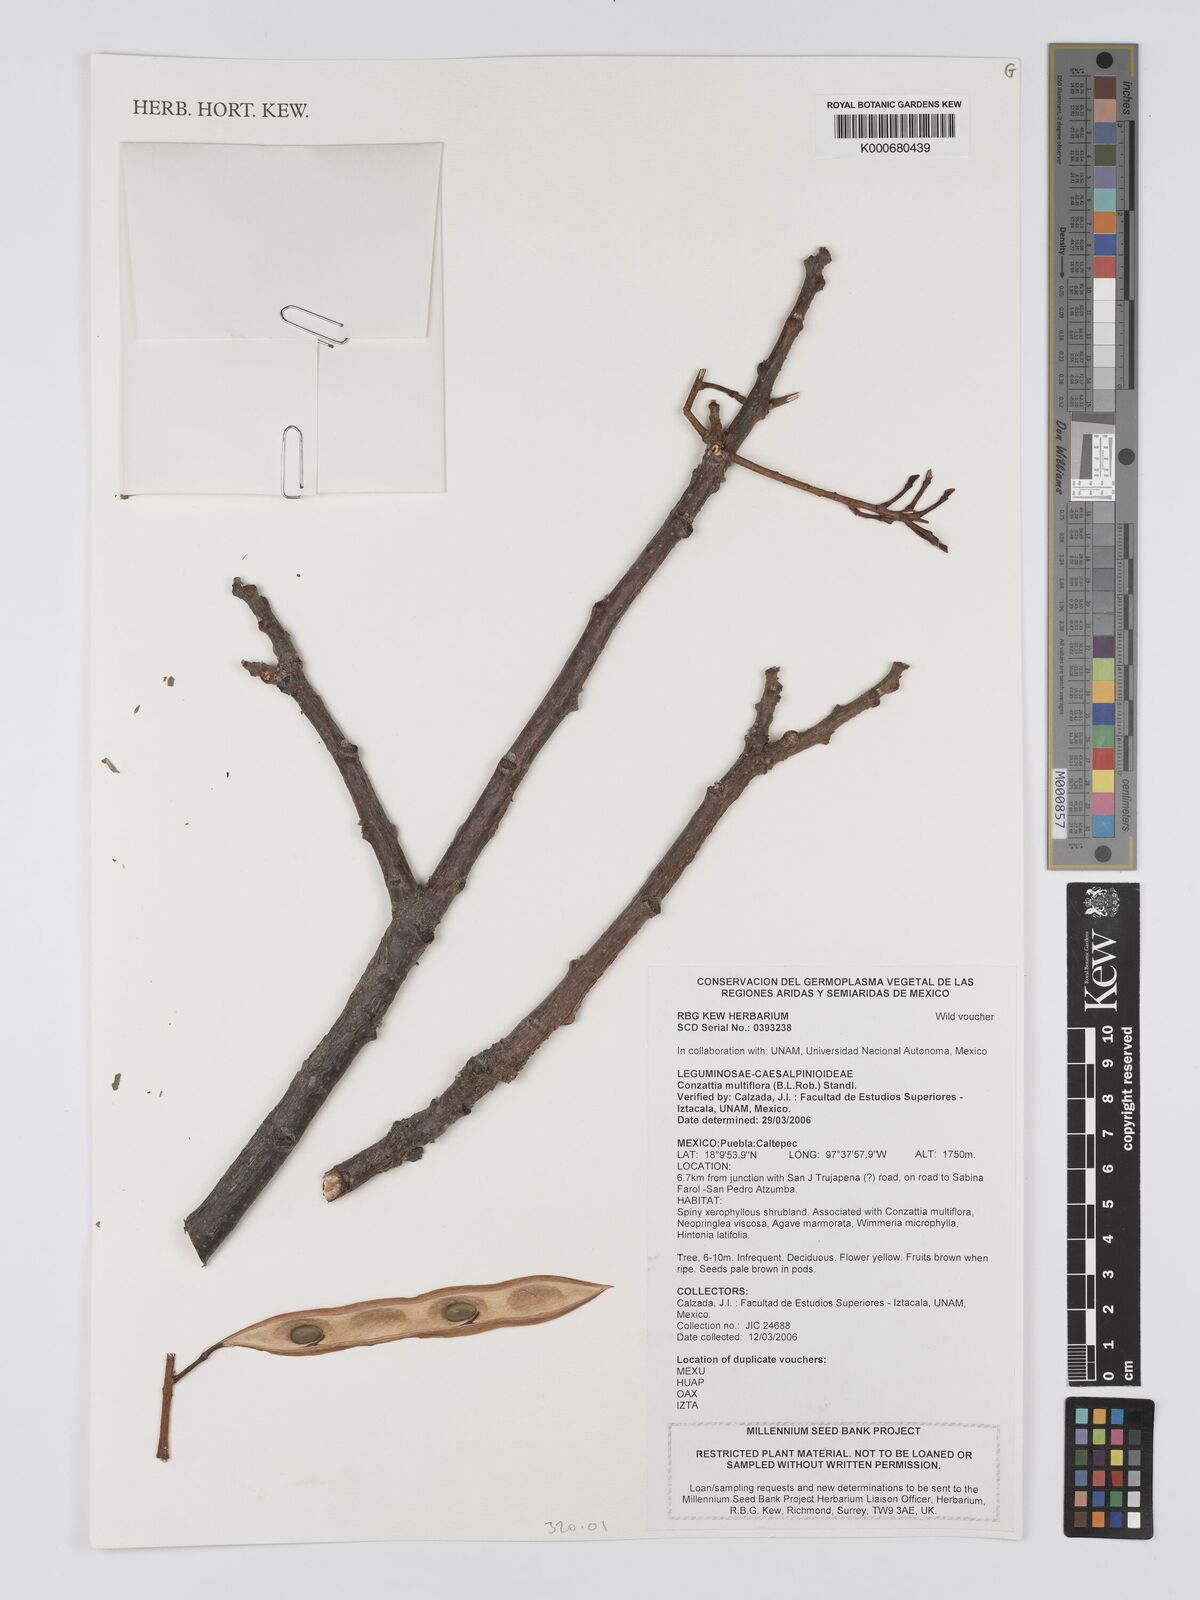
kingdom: Plantae
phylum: Tracheophyta
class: Magnoliopsida
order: Fabales
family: Fabaceae
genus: Conzattia
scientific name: Conzattia multiflora
